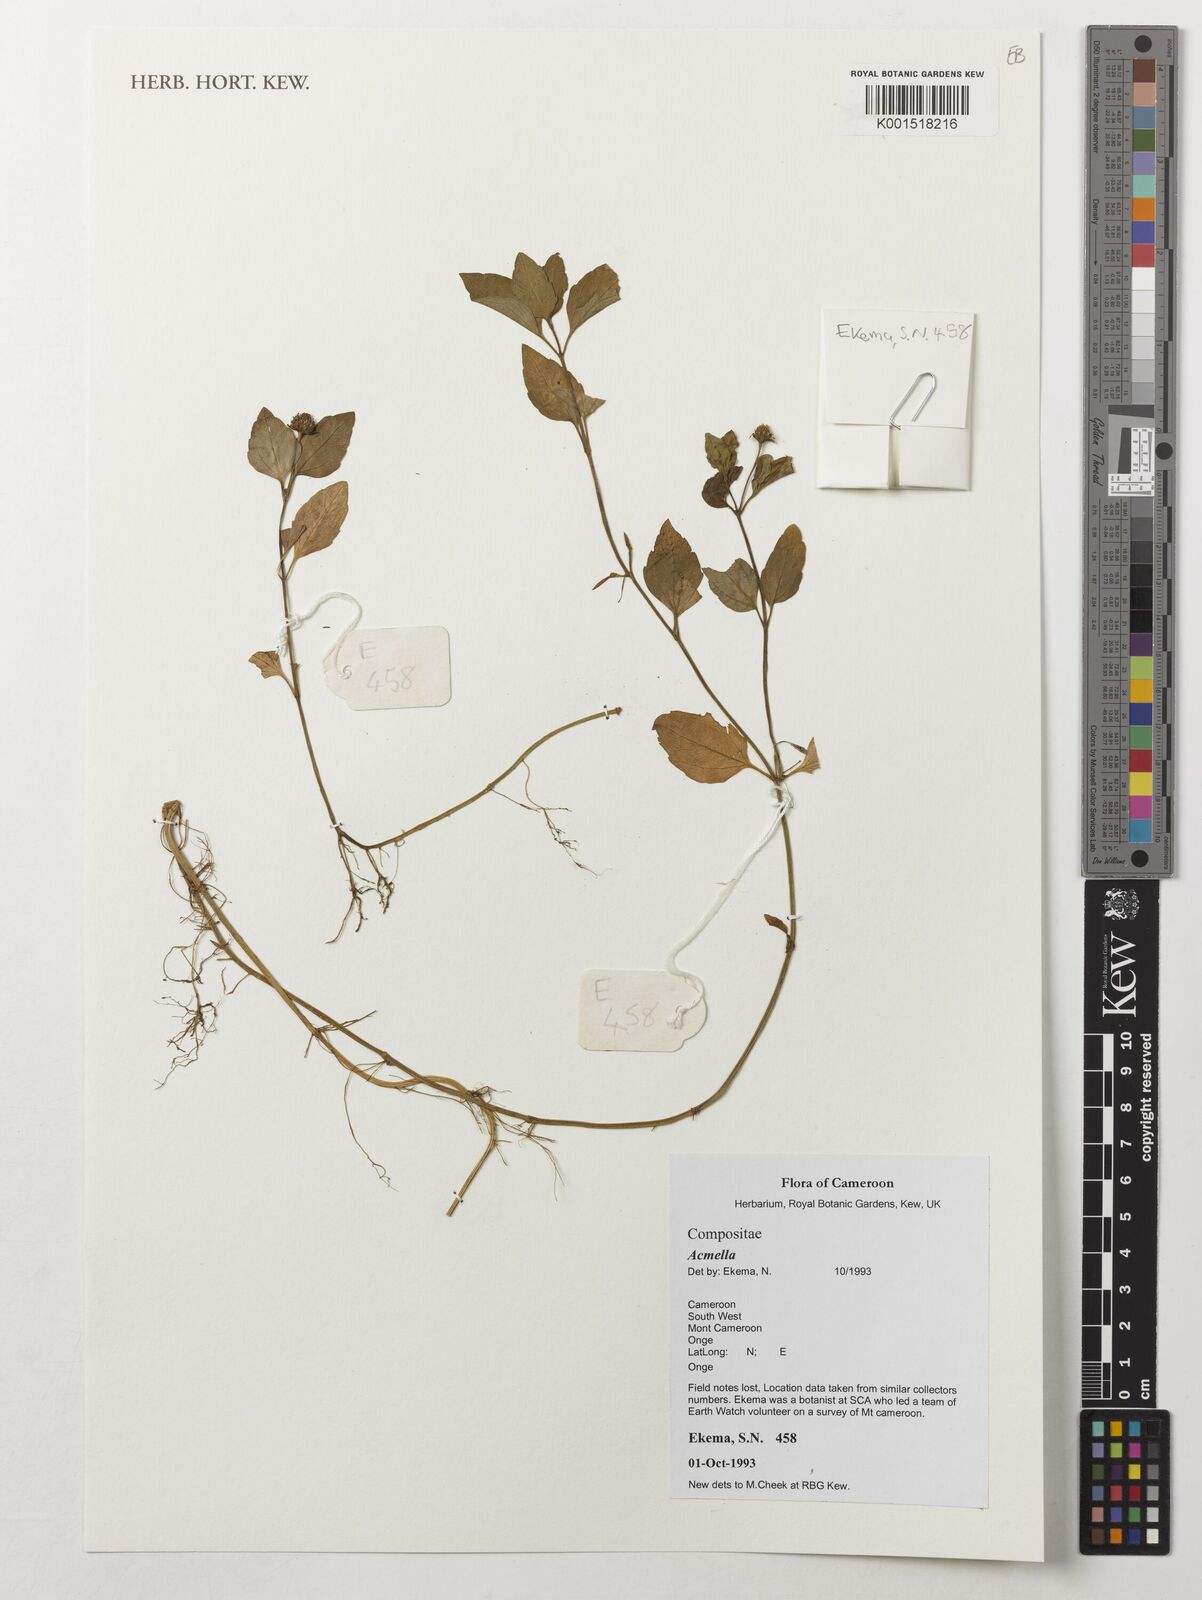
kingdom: Plantae
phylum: Tracheophyta
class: Magnoliopsida
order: Asterales
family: Asteraceae
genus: Acmella
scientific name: Acmella
